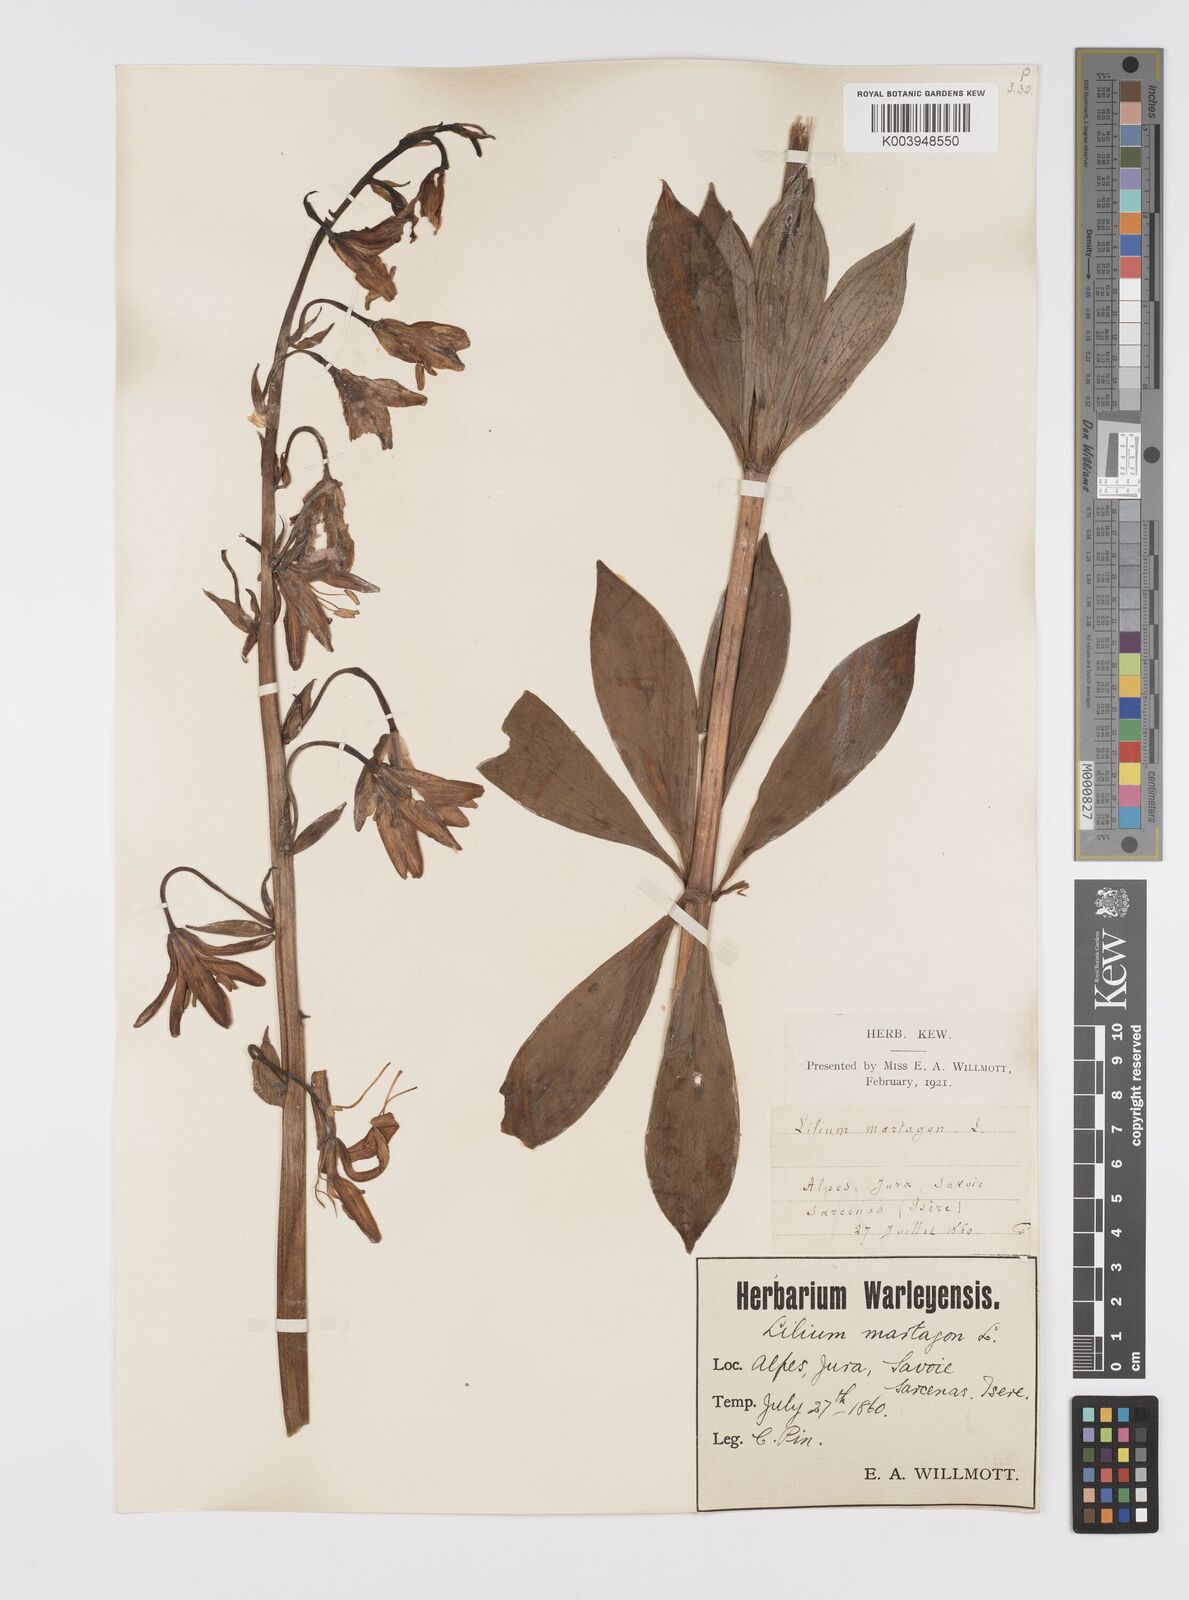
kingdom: Plantae
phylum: Tracheophyta
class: Liliopsida
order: Liliales
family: Liliaceae
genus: Lilium
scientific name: Lilium martagon
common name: Martagon lily
